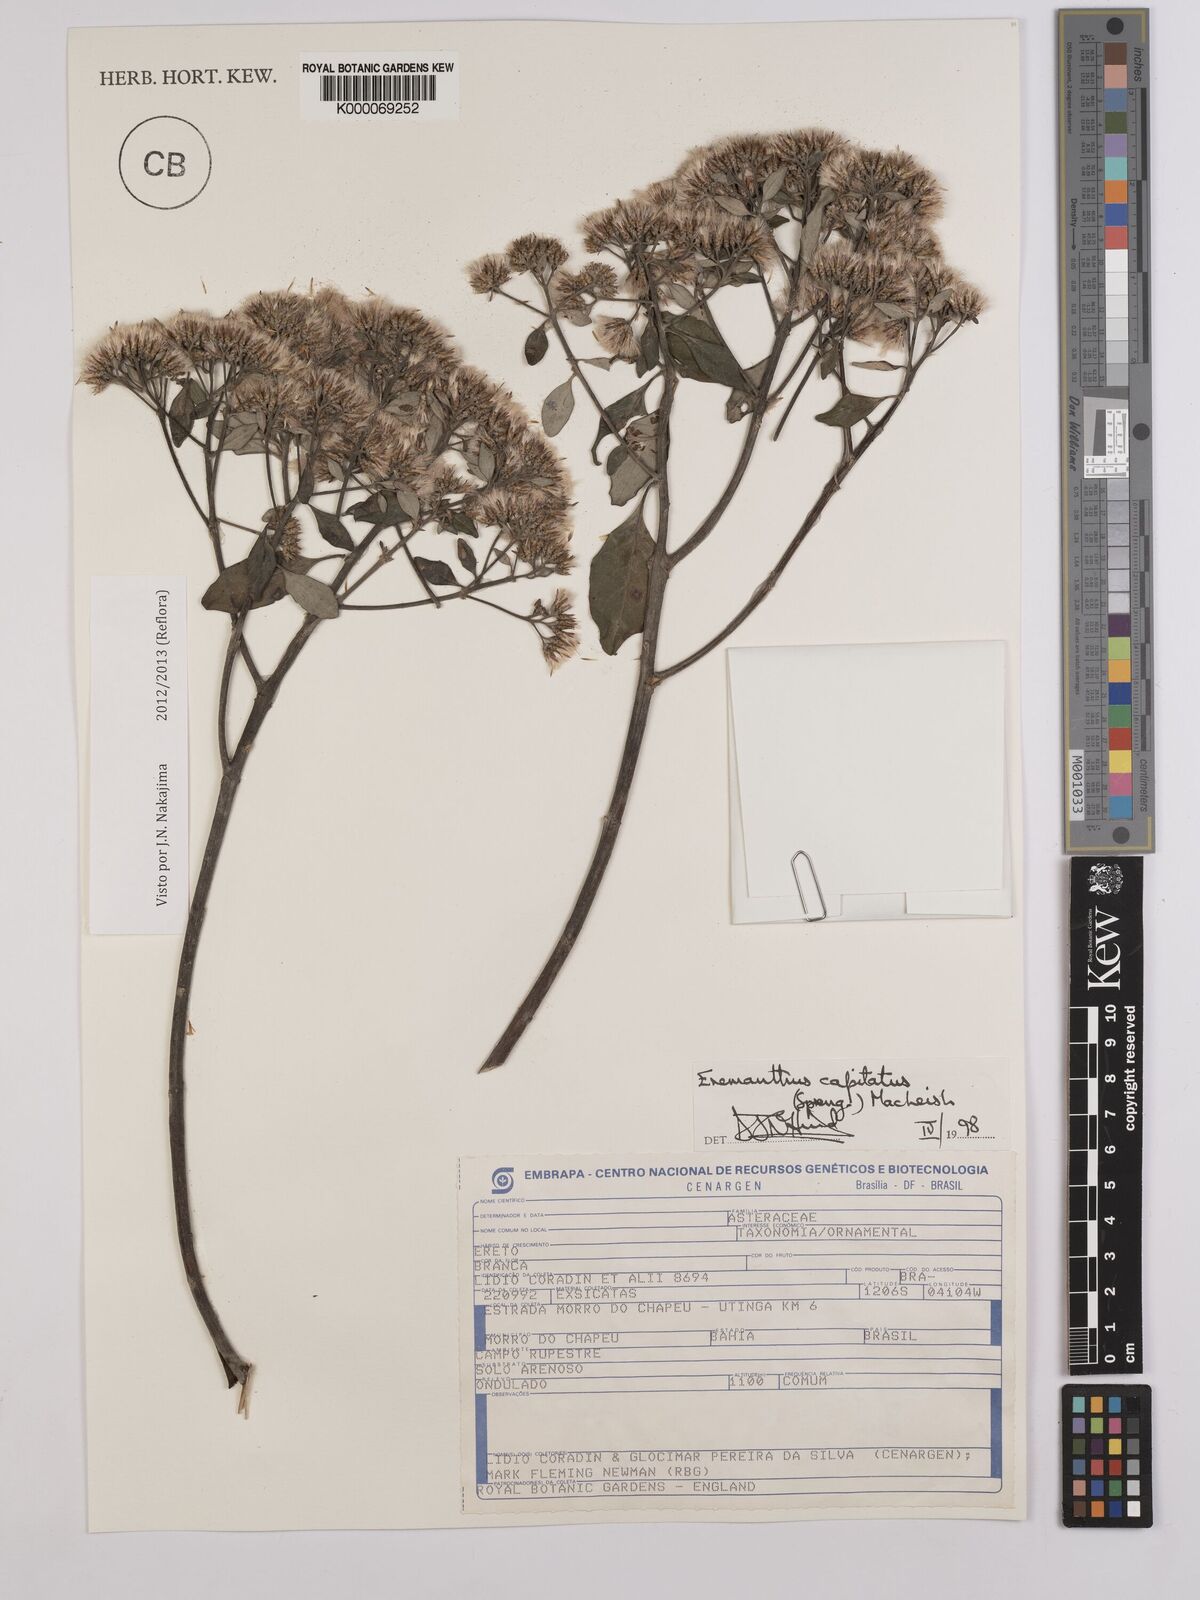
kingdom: Plantae
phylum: Tracheophyta
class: Magnoliopsida
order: Asterales
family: Asteraceae
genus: Eremanthus
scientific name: Eremanthus capitatus
